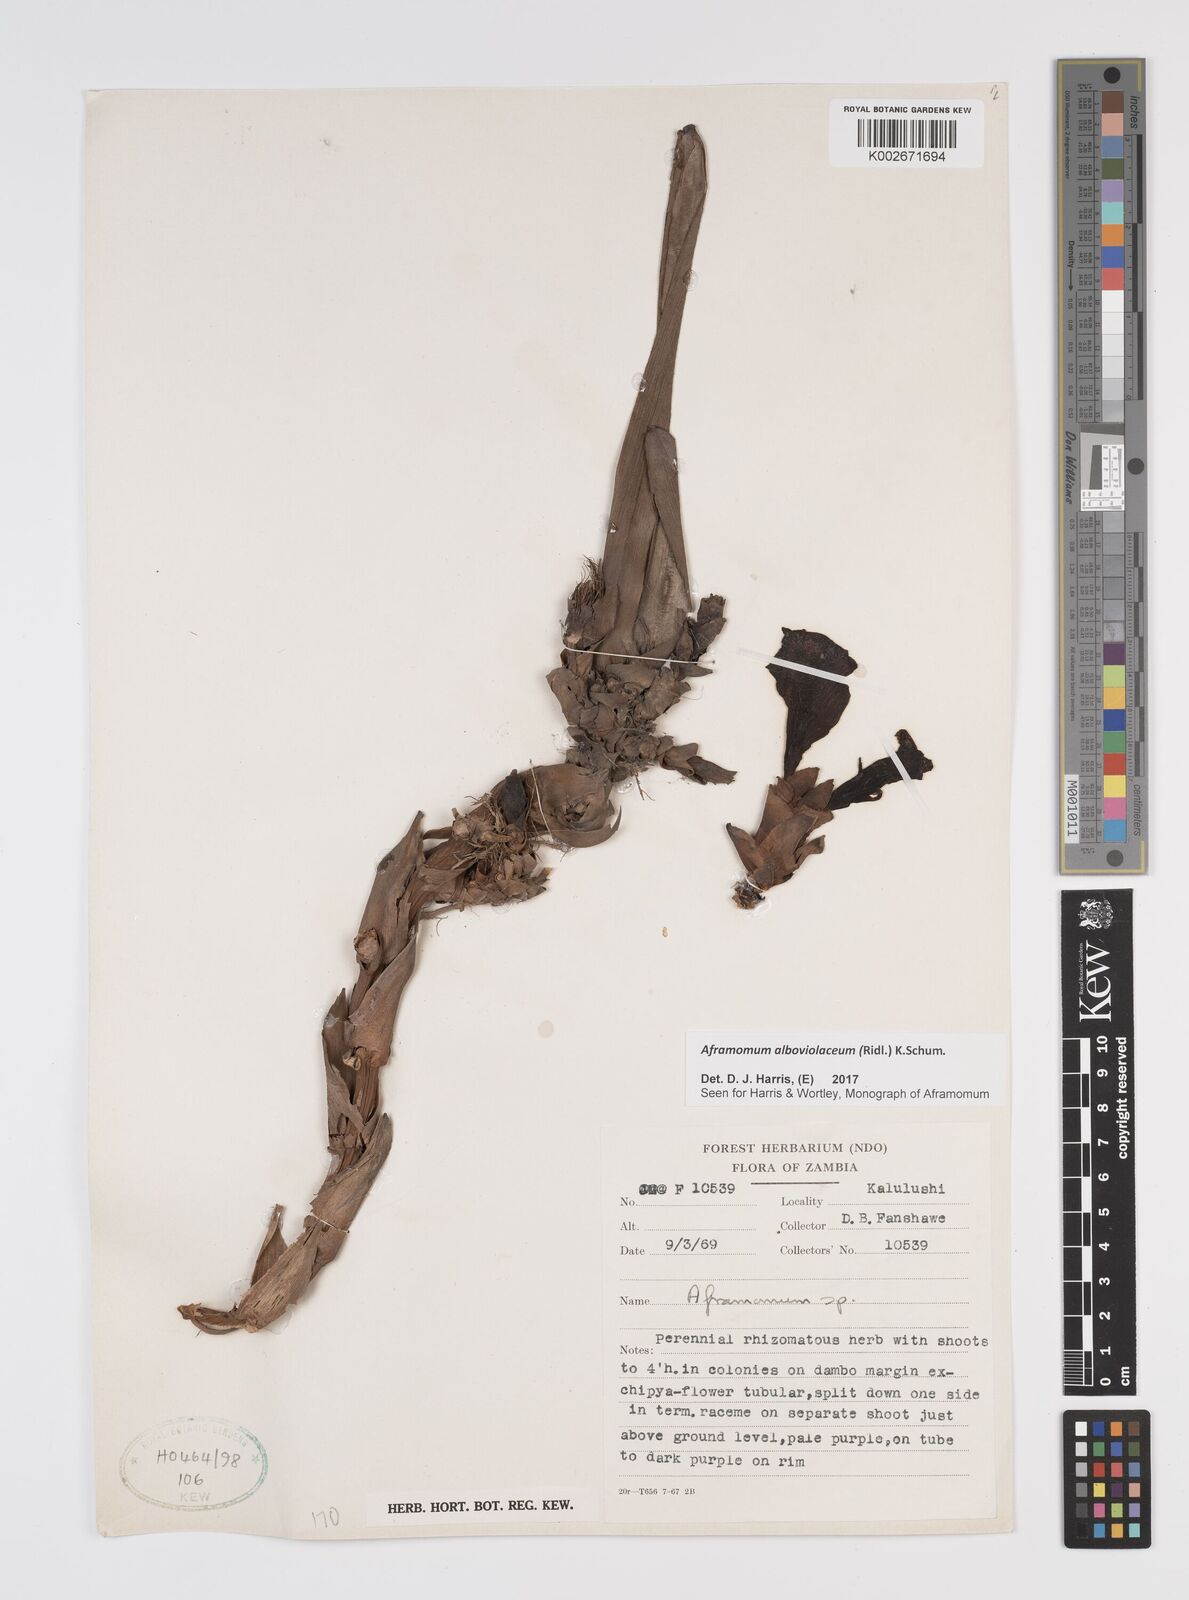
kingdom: Plantae
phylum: Tracheophyta
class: Liliopsida
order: Zingiberales
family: Zingiberaceae
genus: Aframomum
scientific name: Aframomum alboviolaceum
